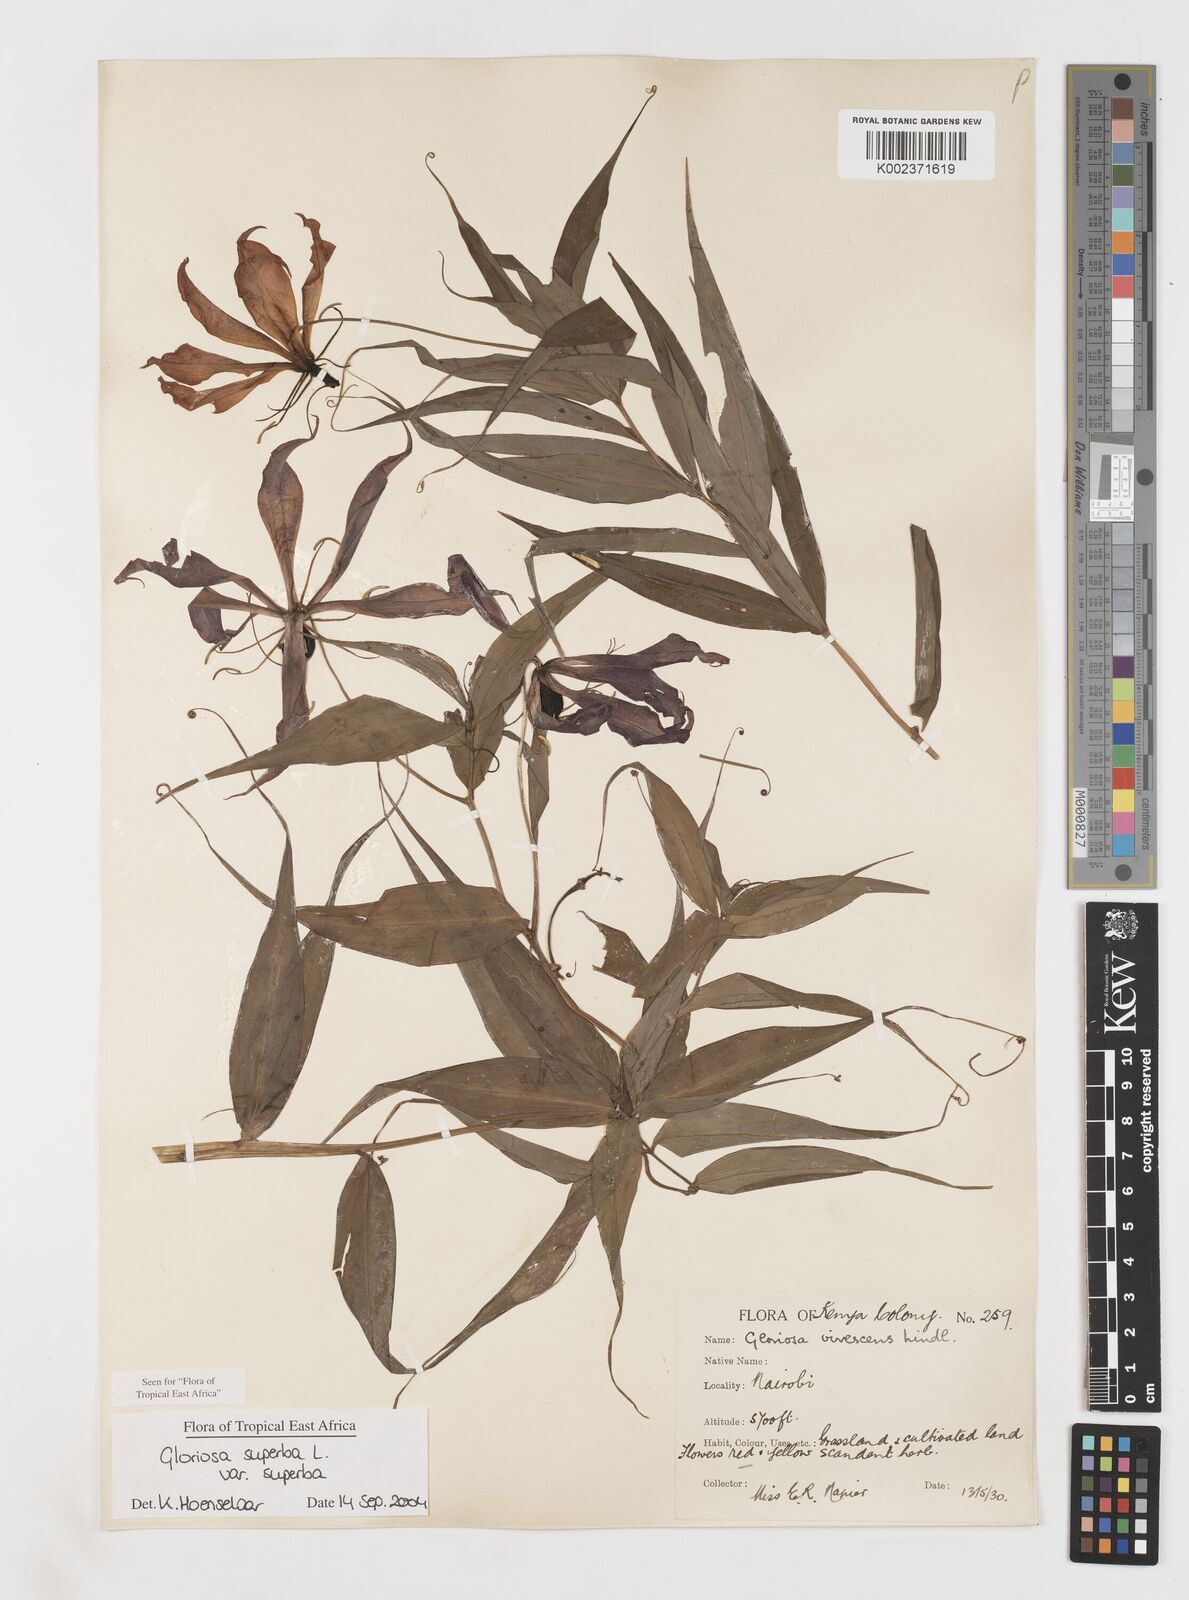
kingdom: Plantae
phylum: Tracheophyta
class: Liliopsida
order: Liliales
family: Colchicaceae
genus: Gloriosa
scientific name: Gloriosa simplex
